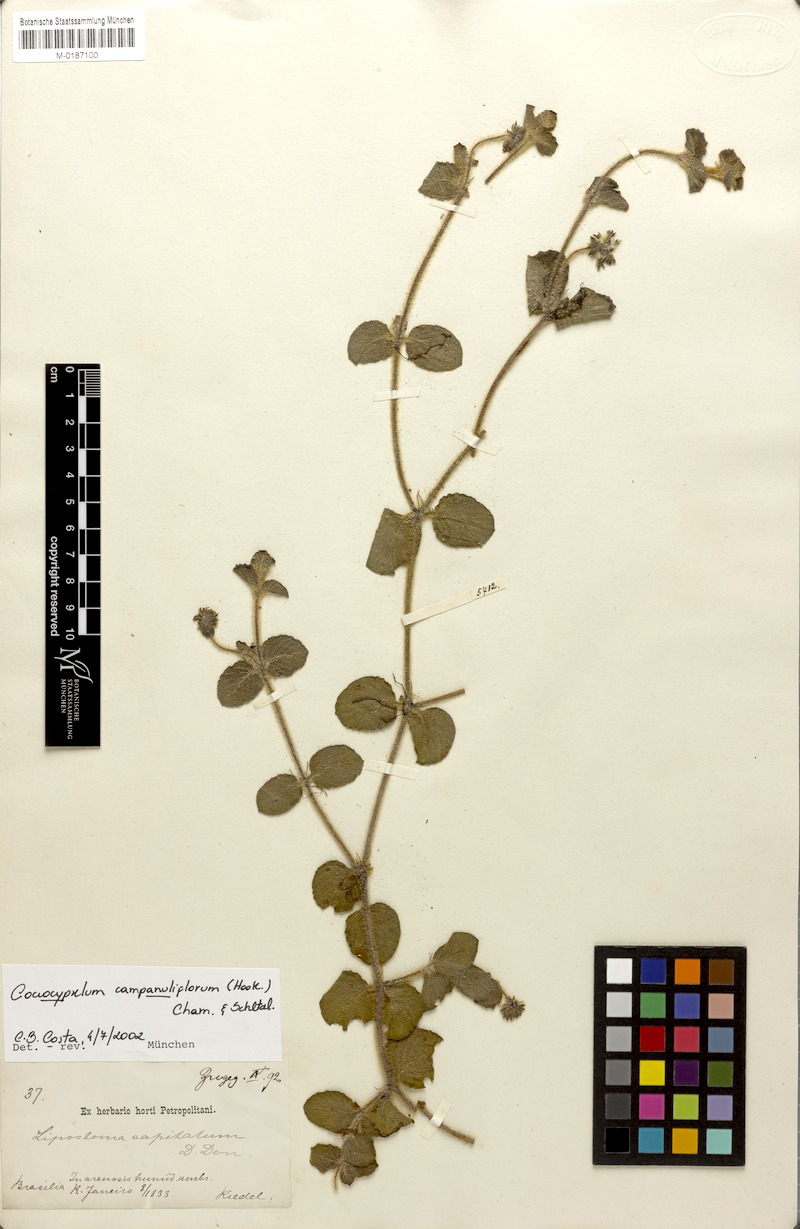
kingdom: Plantae
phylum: Tracheophyta
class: Magnoliopsida
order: Gentianales
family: Rubiaceae
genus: Coccocypselum
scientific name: Coccocypselum capitatum
